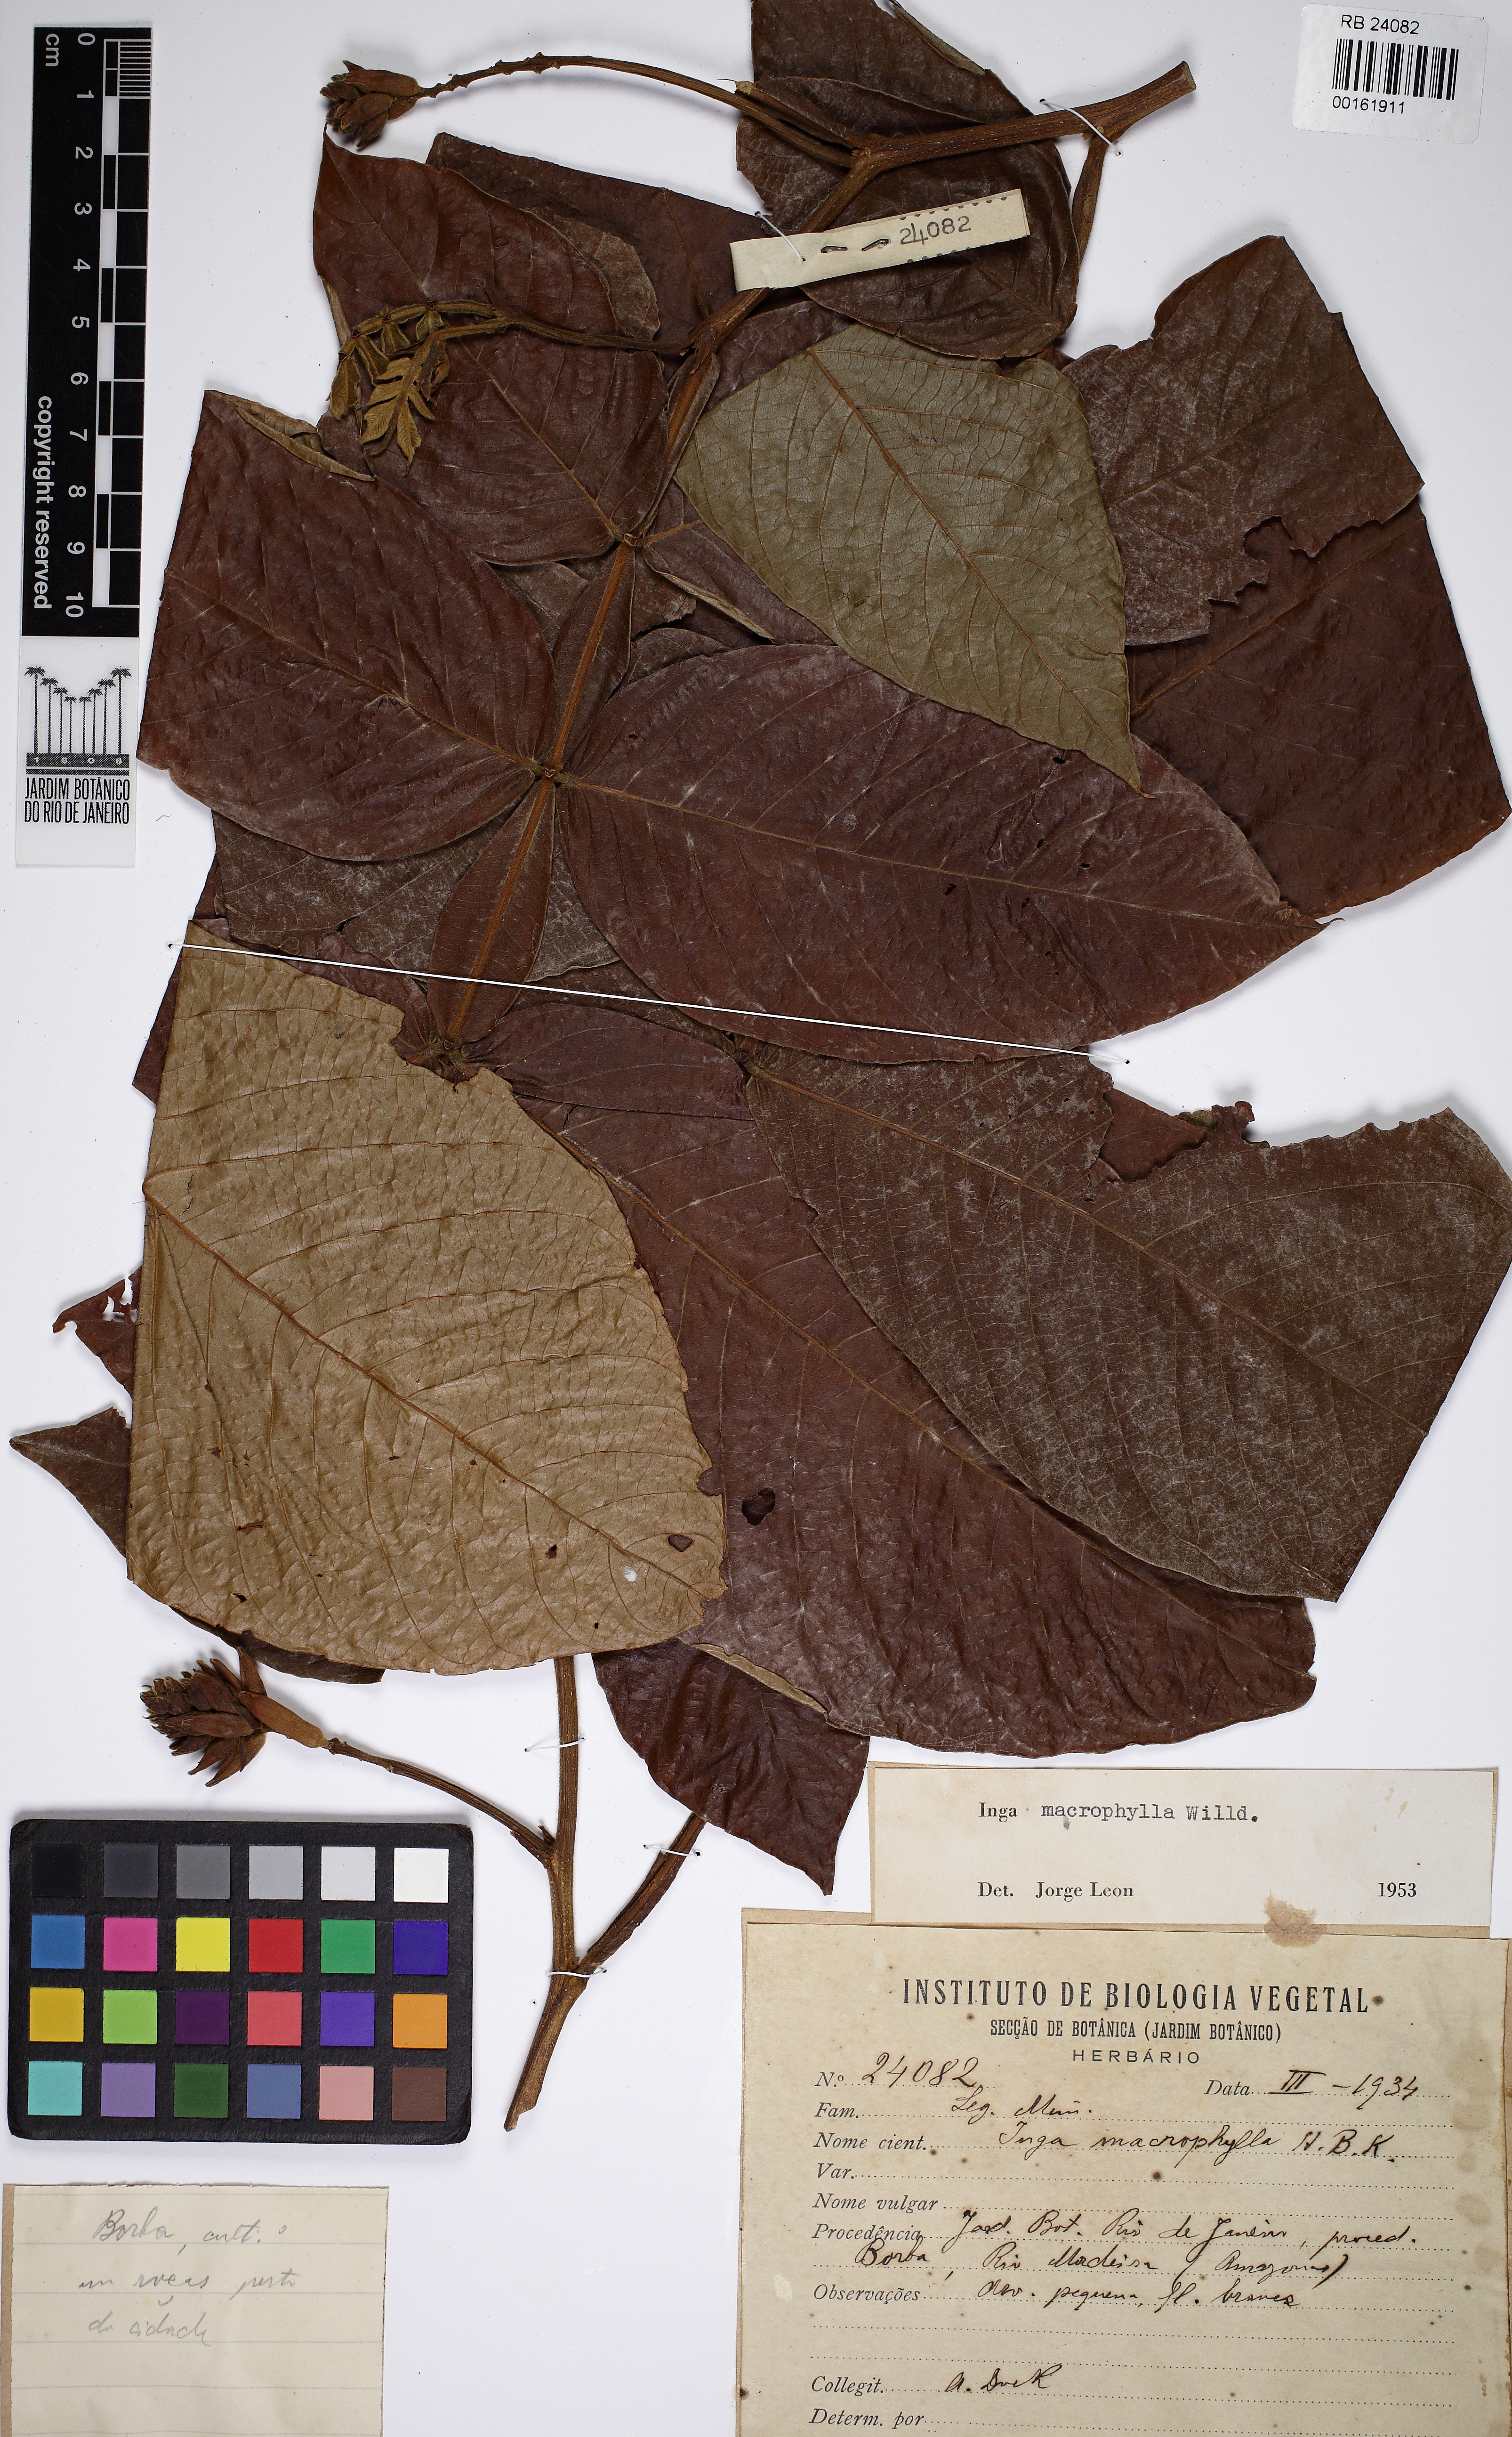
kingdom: Plantae
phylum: Tracheophyta
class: Magnoliopsida
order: Fabales
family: Fabaceae
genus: Inga
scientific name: Inga macrophylla
